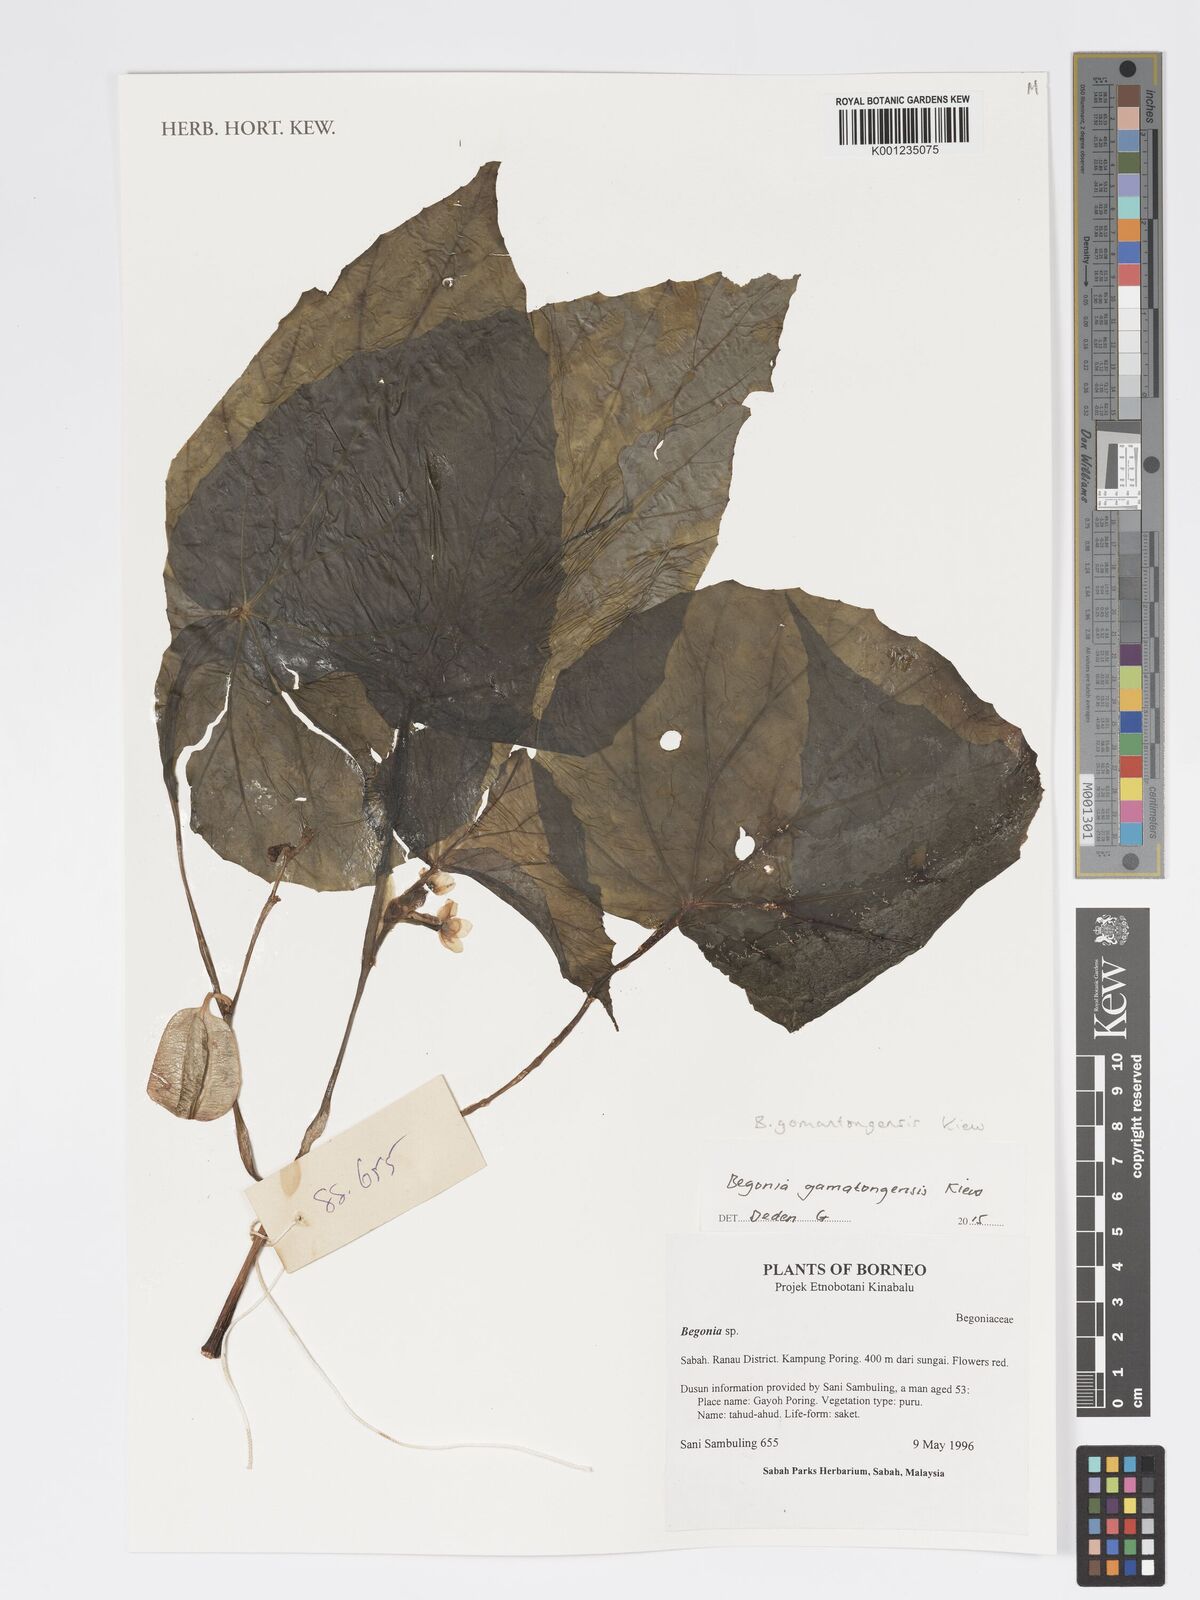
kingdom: Plantae
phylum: Tracheophyta
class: Magnoliopsida
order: Cucurbitales
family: Begoniaceae
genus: Begonia
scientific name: Begonia gomantongensis
